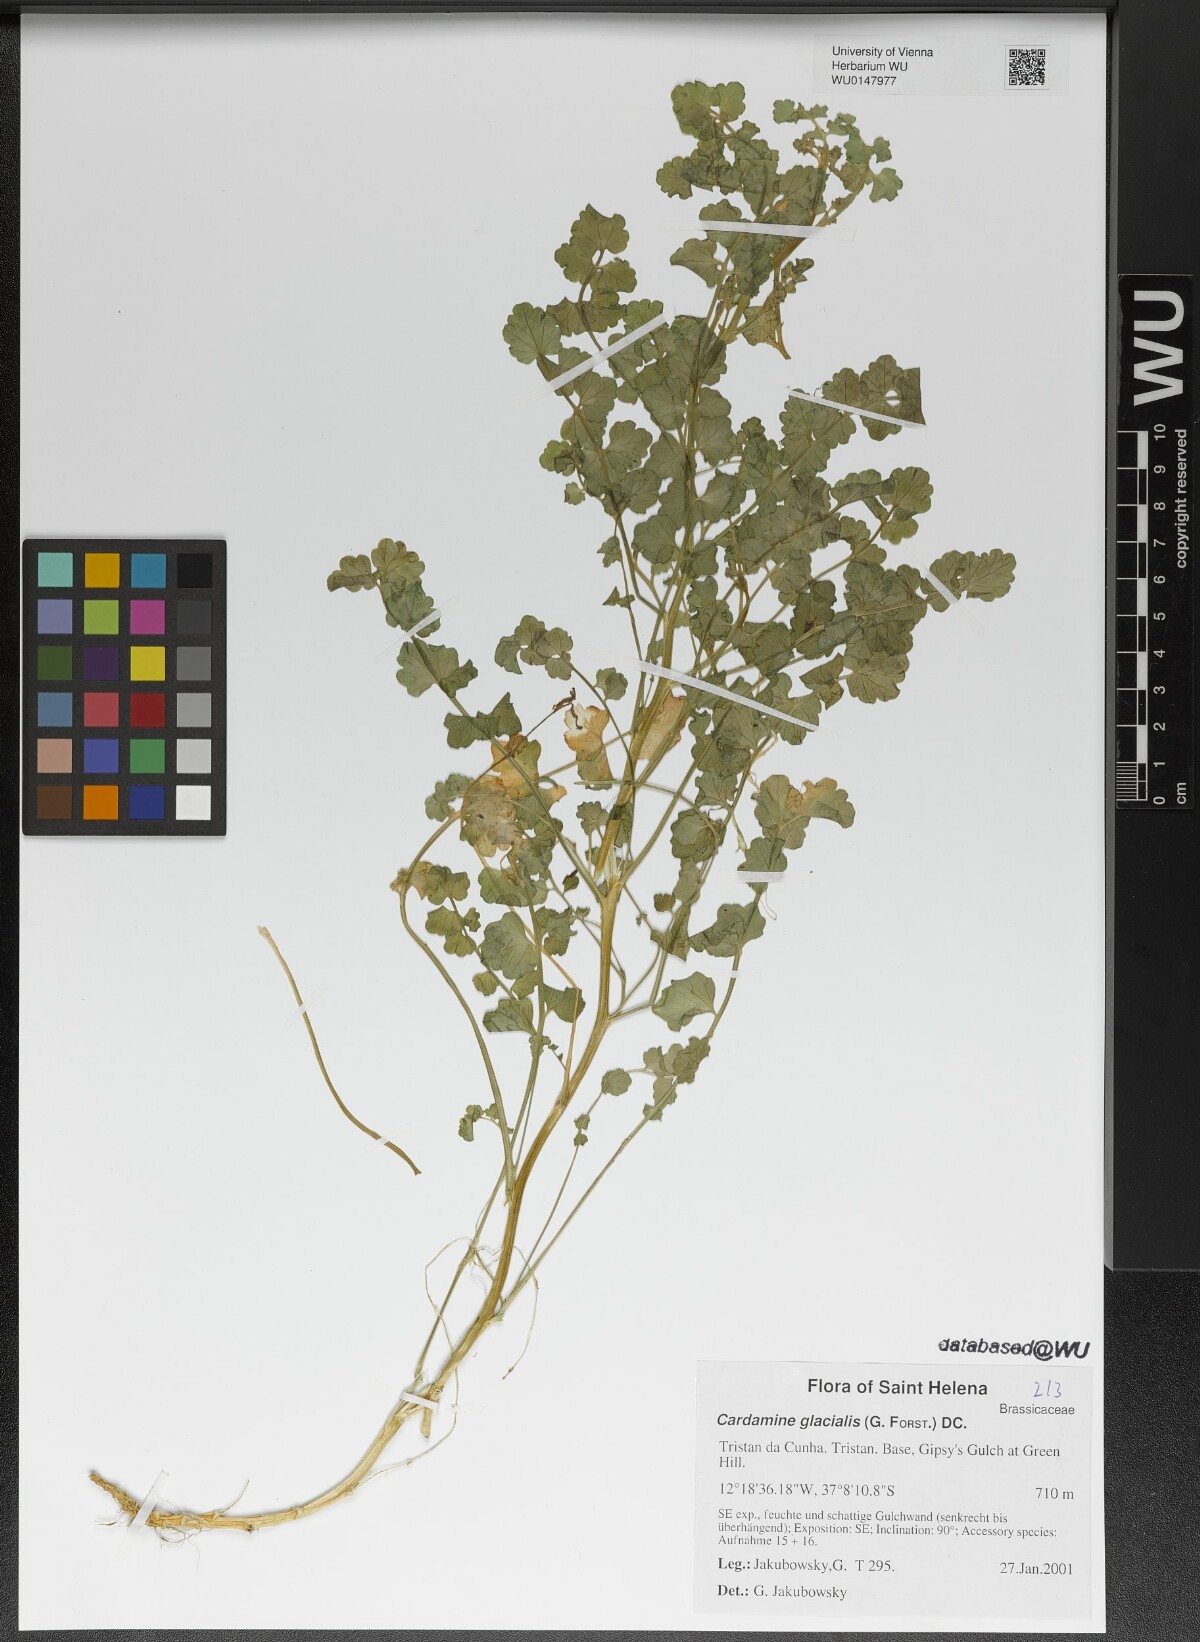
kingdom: Plantae
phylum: Tracheophyta
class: Magnoliopsida
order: Brassicales
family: Brassicaceae
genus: Cardamine
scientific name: Cardamine glacialis
